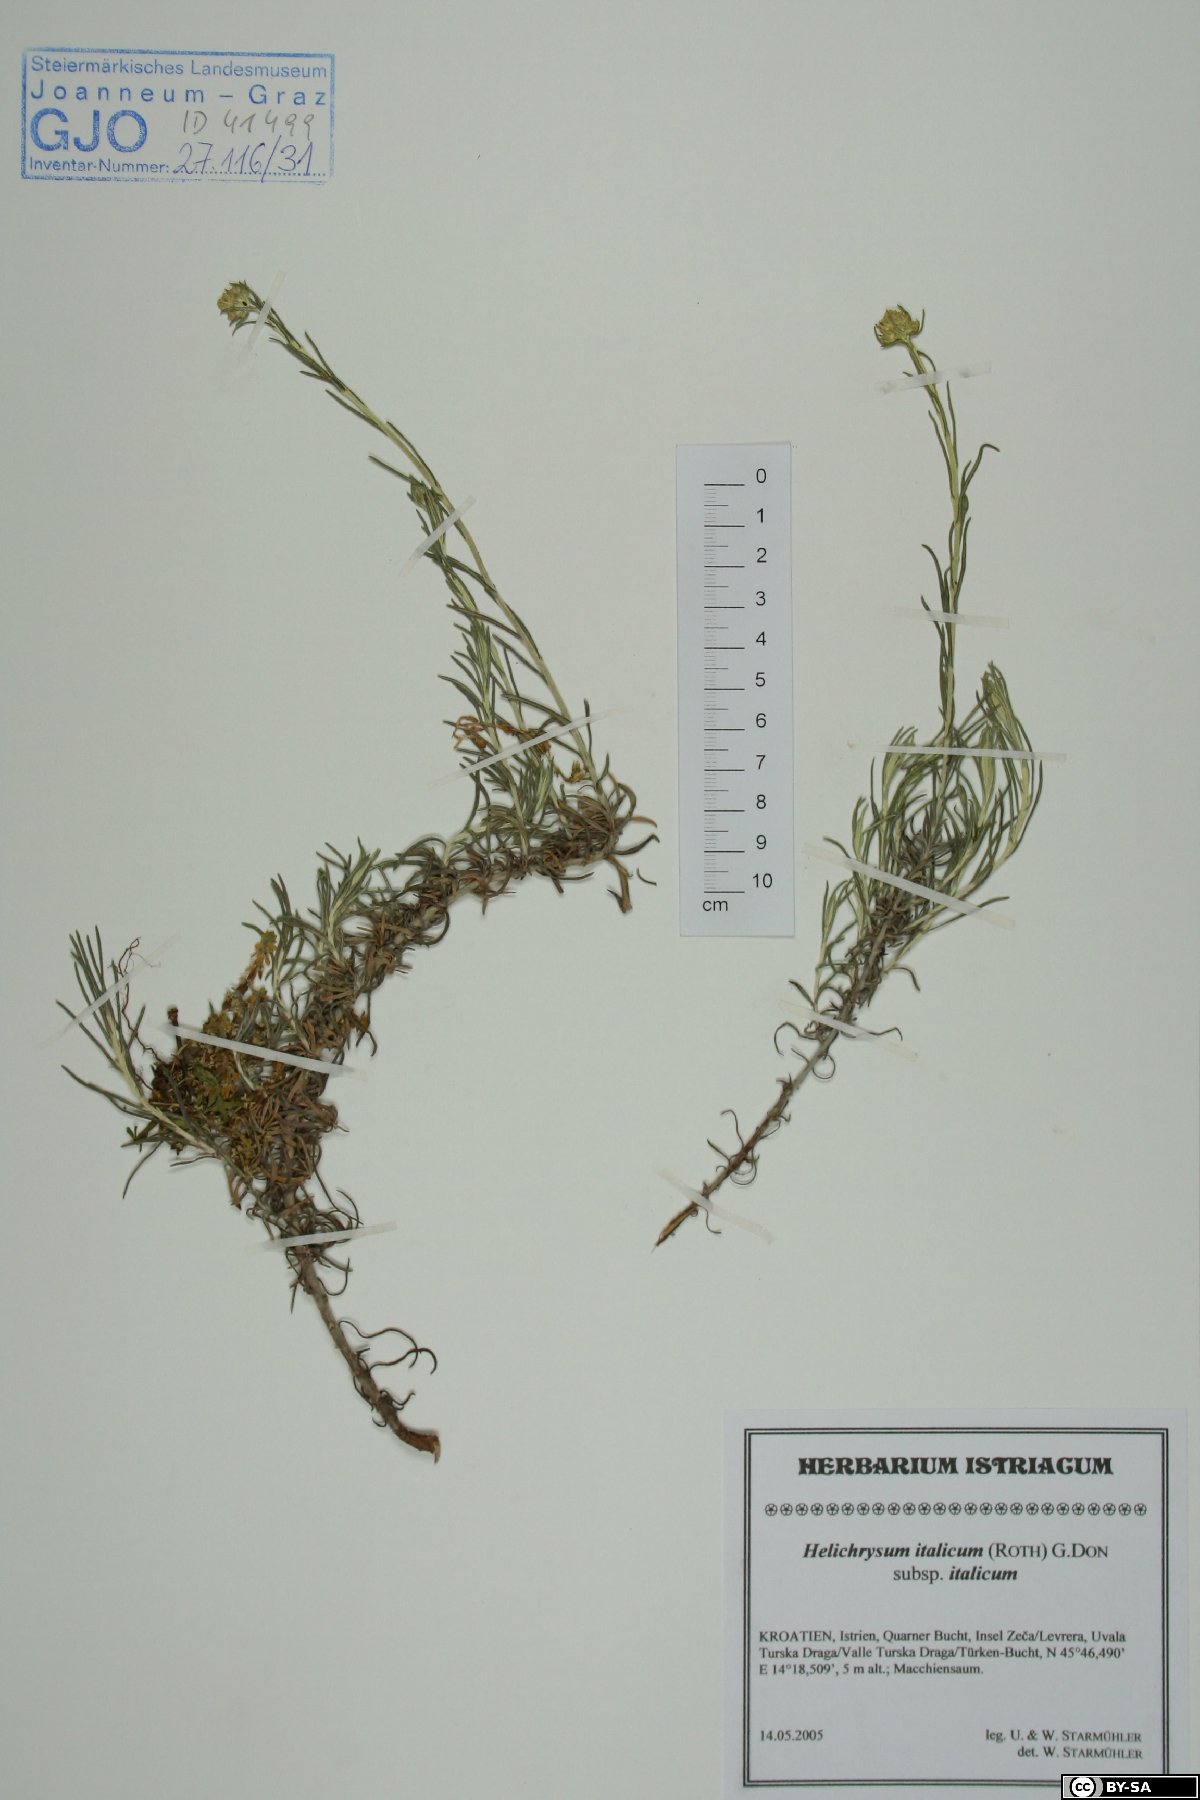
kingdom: Plantae
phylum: Tracheophyta
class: Magnoliopsida
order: Asterales
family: Asteraceae
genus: Helichrysum
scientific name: Helichrysum italicum
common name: Curryplant
